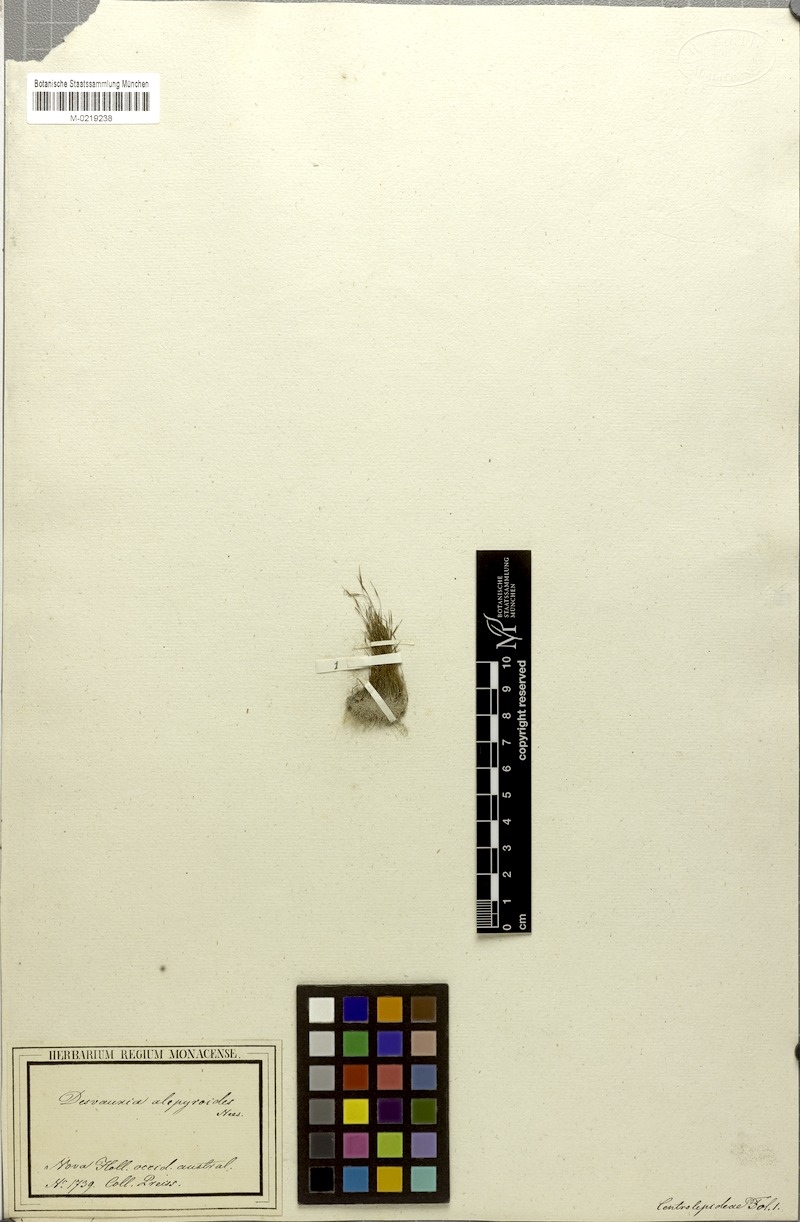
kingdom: Plantae
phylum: Tracheophyta
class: Liliopsida
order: Poales
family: Restionaceae
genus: Centrolepis
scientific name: Centrolepis alepyroides
